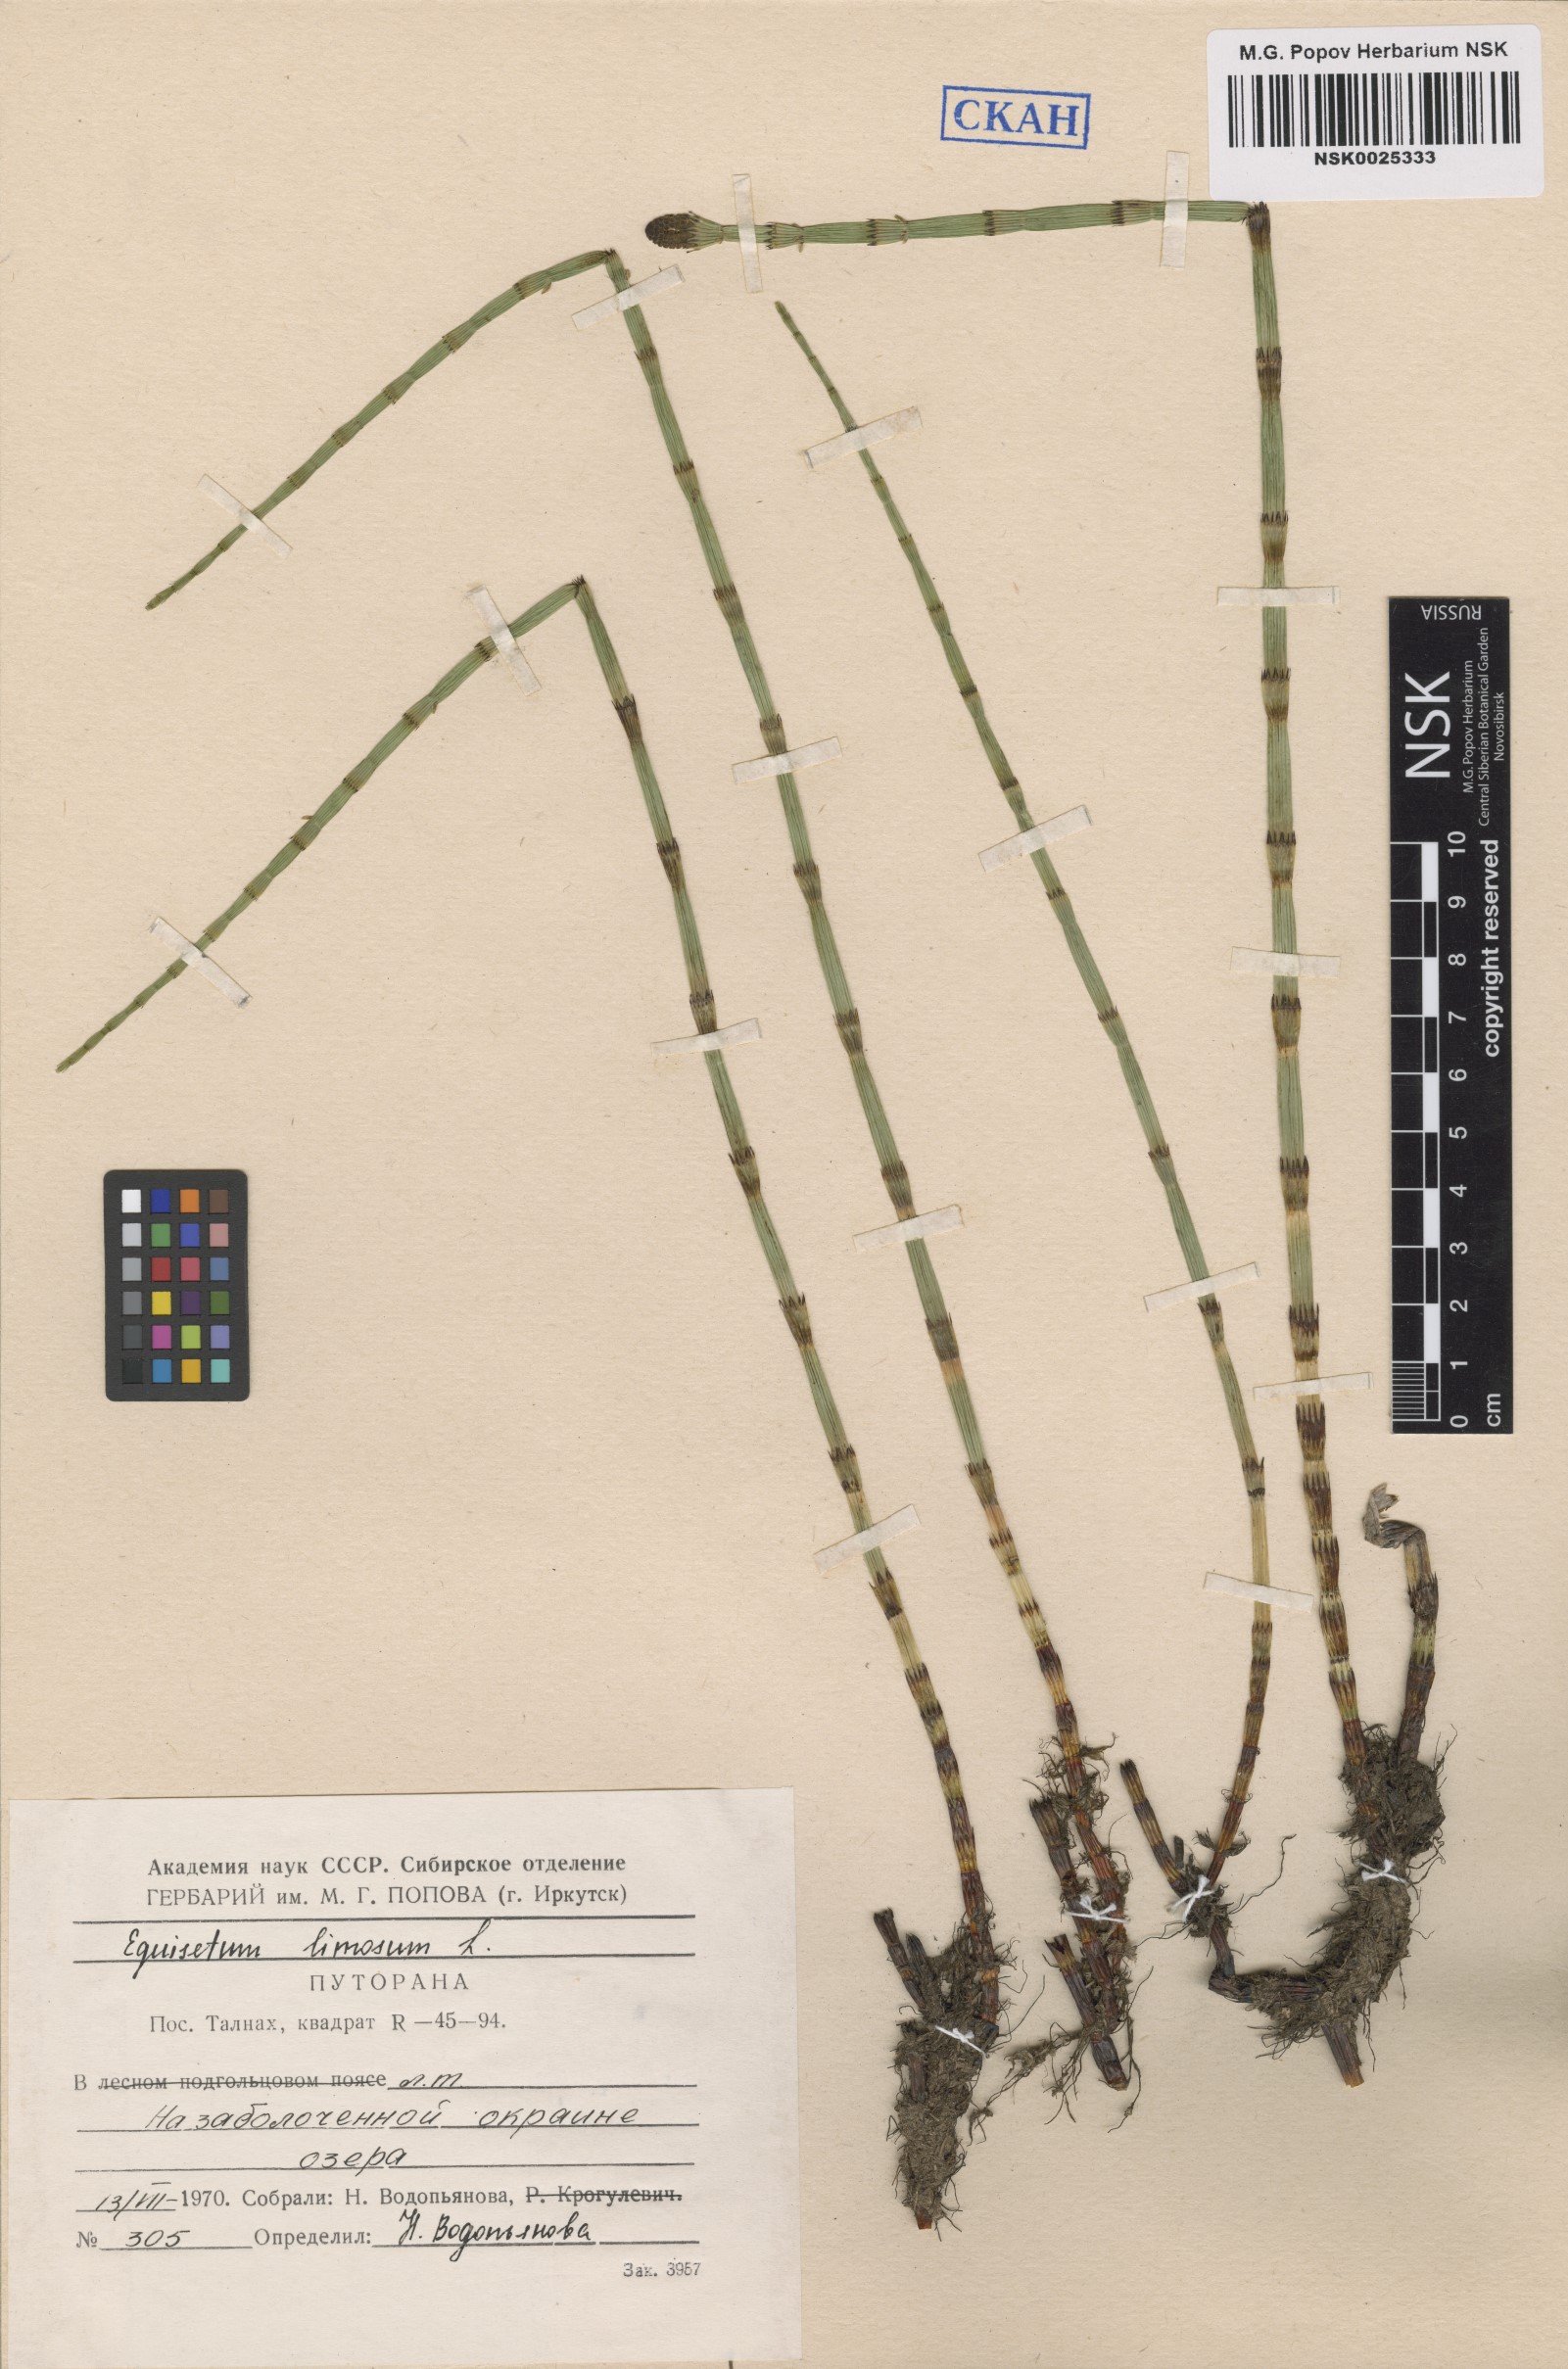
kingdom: Plantae
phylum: Tracheophyta
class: Polypodiopsida
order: Equisetales
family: Equisetaceae
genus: Equisetum
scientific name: Equisetum fluviatile
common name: Water horsetail
